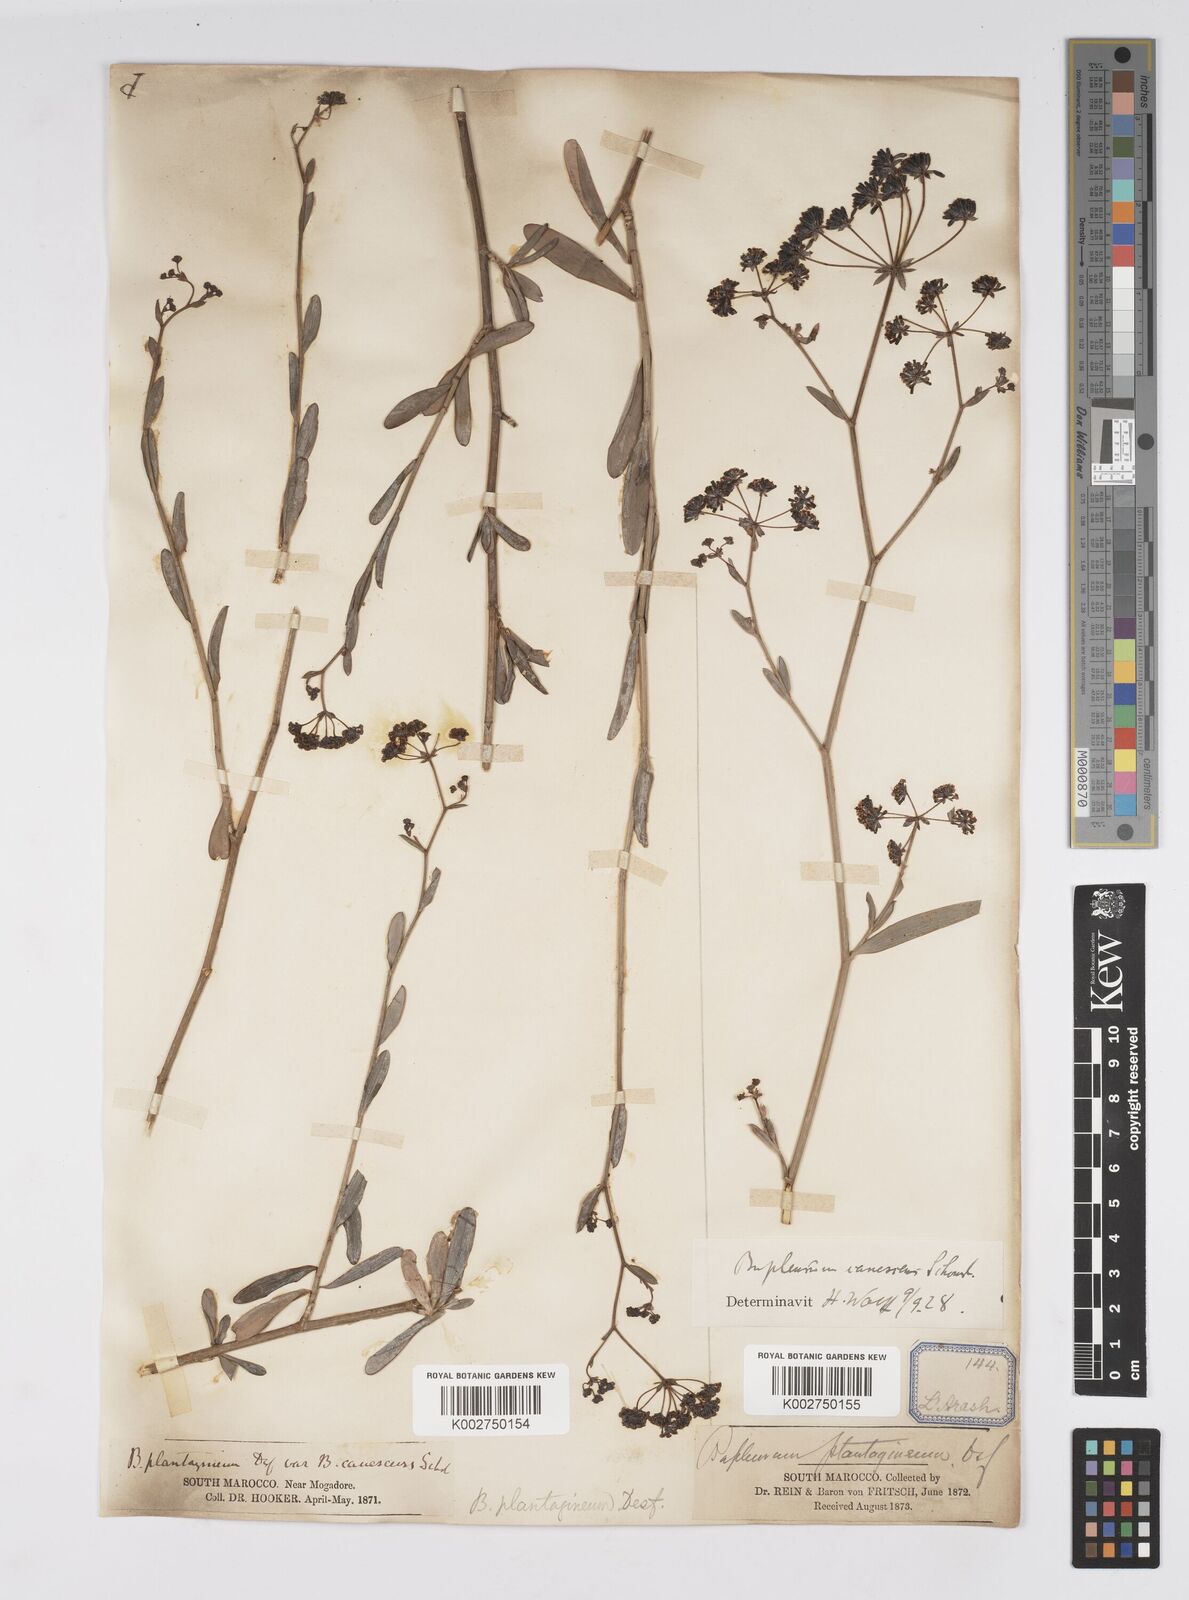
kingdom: Plantae
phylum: Tracheophyta
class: Magnoliopsida
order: Apiales
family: Apiaceae
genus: Bupleurum
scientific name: Bupleurum canescens
